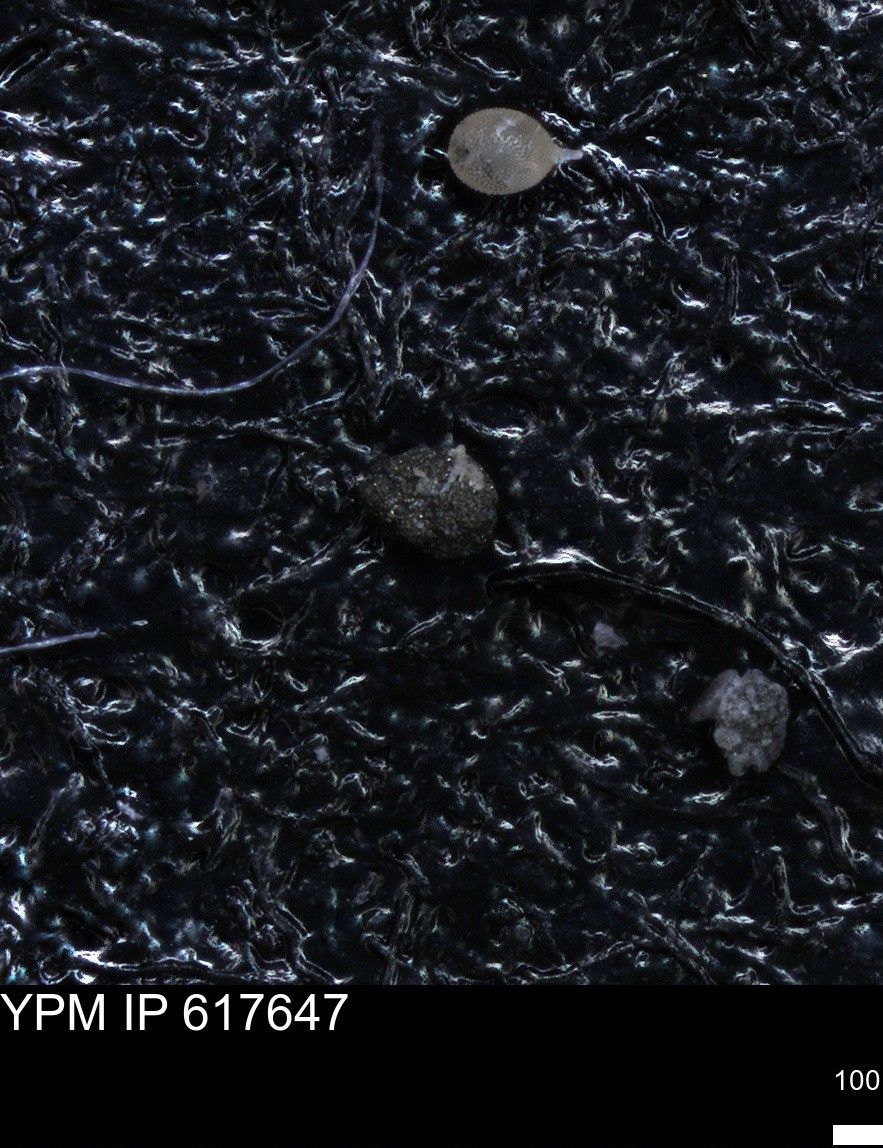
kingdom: Chromista
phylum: Foraminifera
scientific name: Foraminifera
